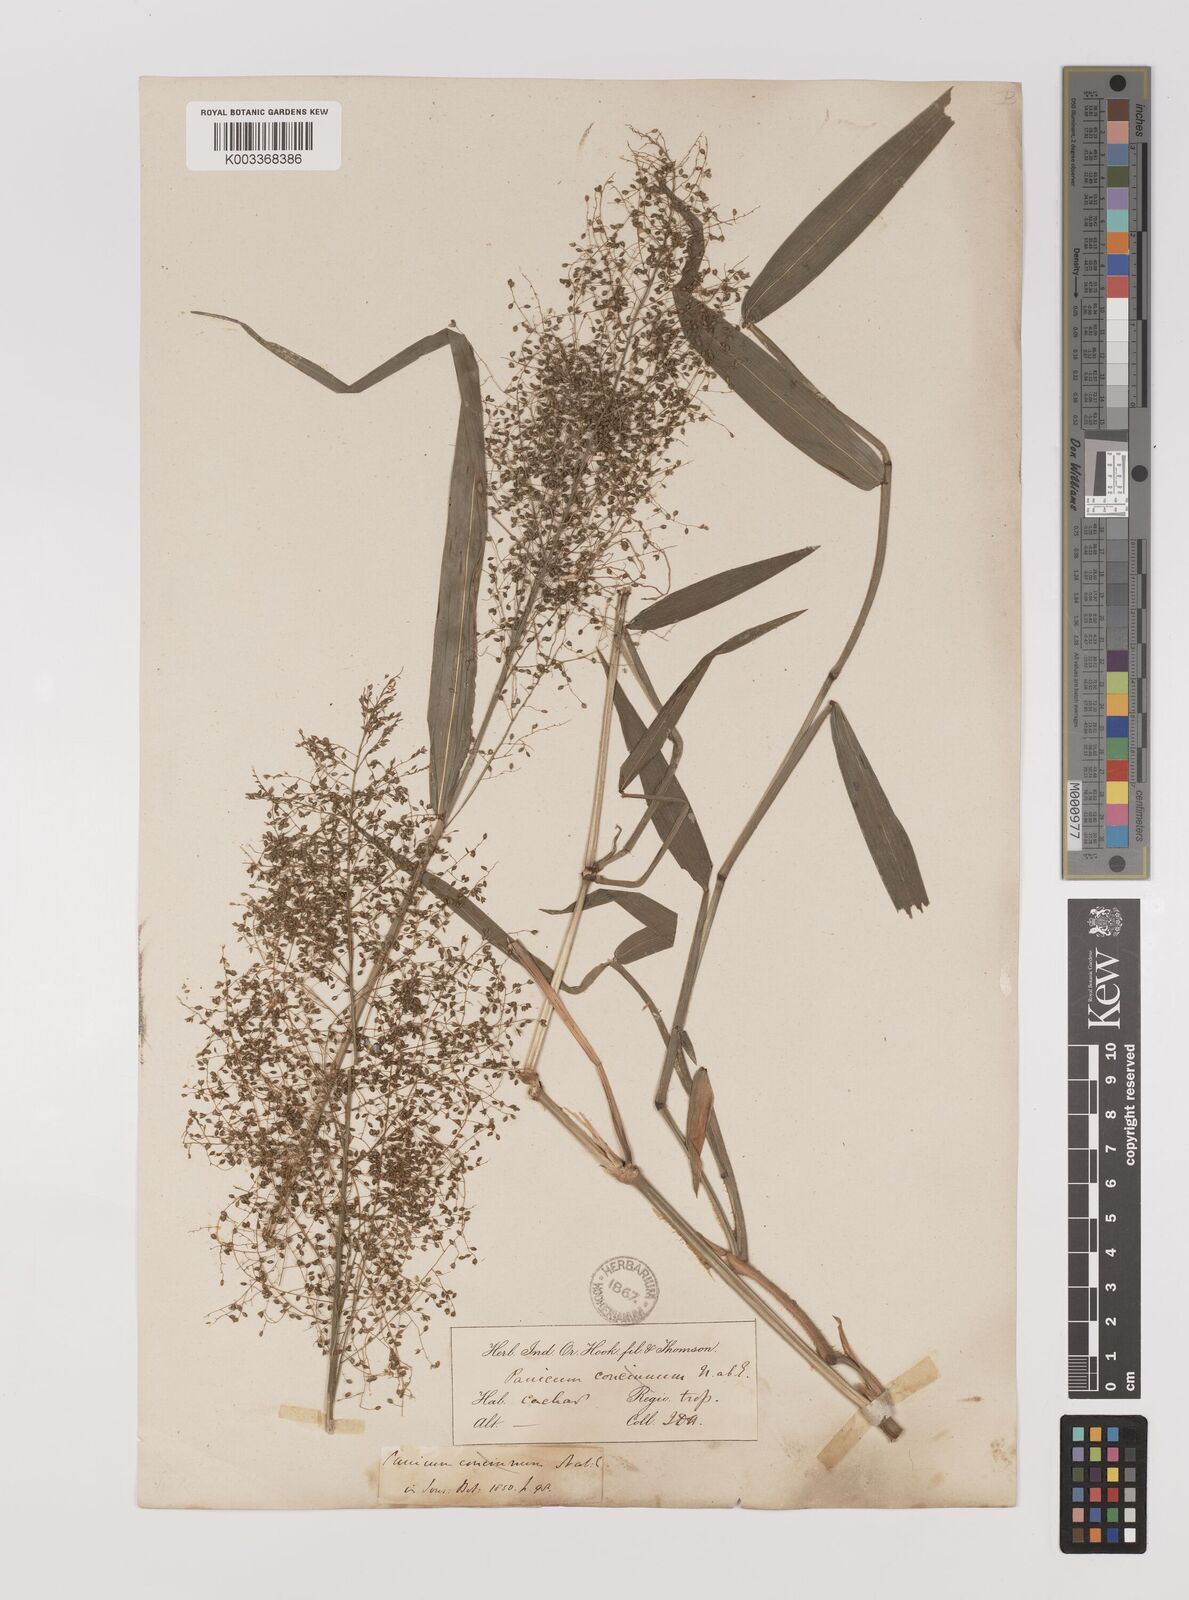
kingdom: Plantae
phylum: Tracheophyta
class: Liliopsida
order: Poales
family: Poaceae
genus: Panicum
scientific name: Panicum incomtum
